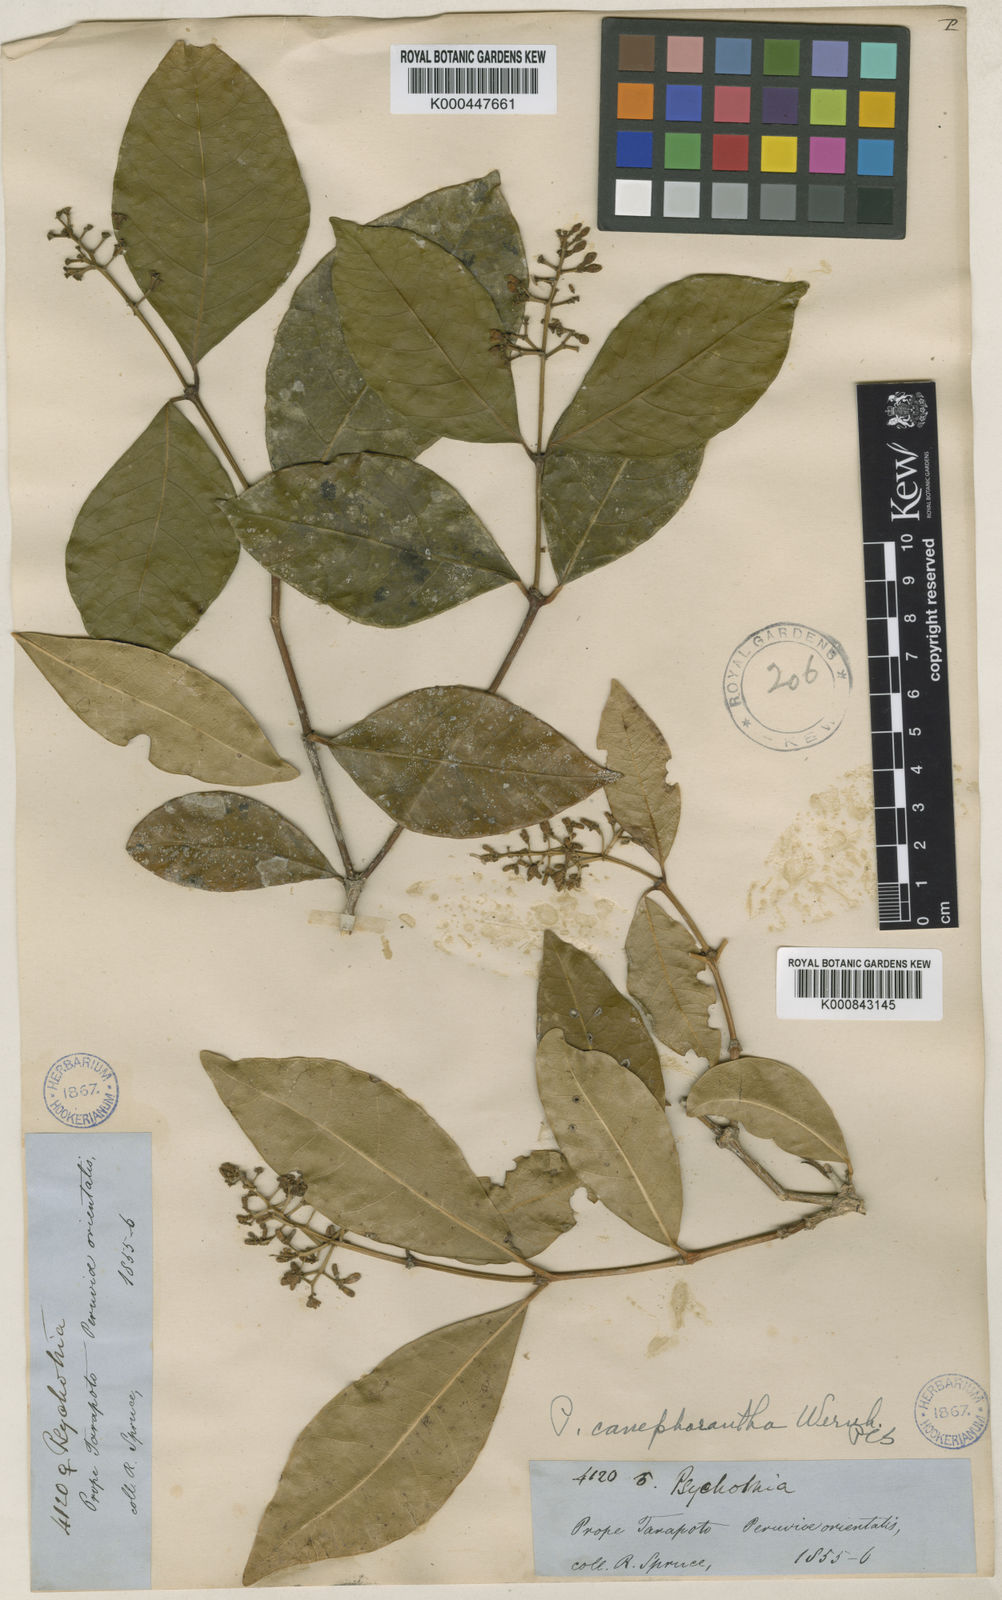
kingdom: Plantae
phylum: Tracheophyta
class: Magnoliopsida
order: Gentianales
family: Rubiaceae
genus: Rudgea
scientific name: Rudgea palicoureoides
